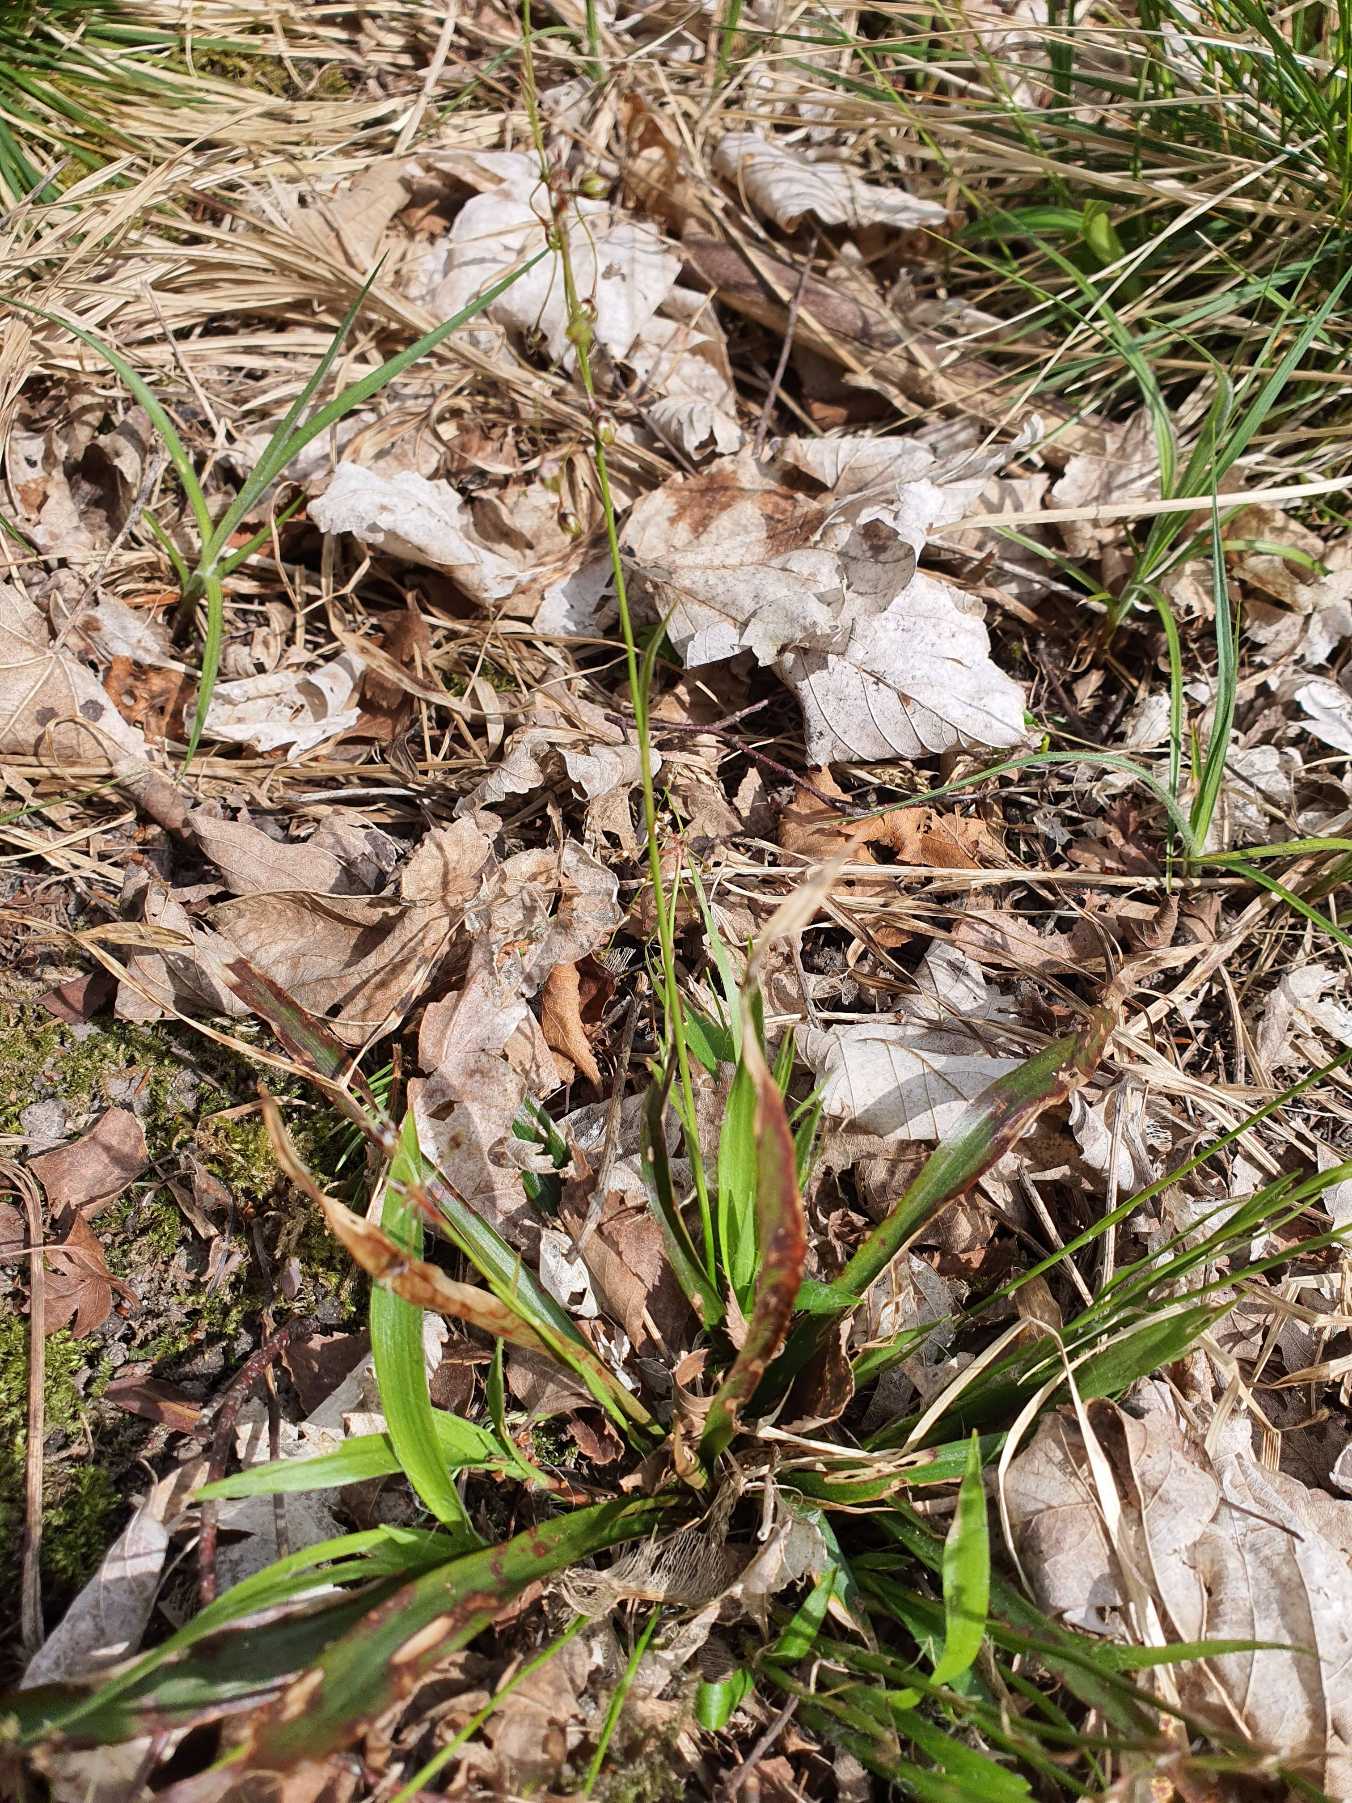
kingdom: Plantae
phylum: Tracheophyta
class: Liliopsida
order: Poales
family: Juncaceae
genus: Luzula
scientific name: Luzula pilosa
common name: Håret frytle
